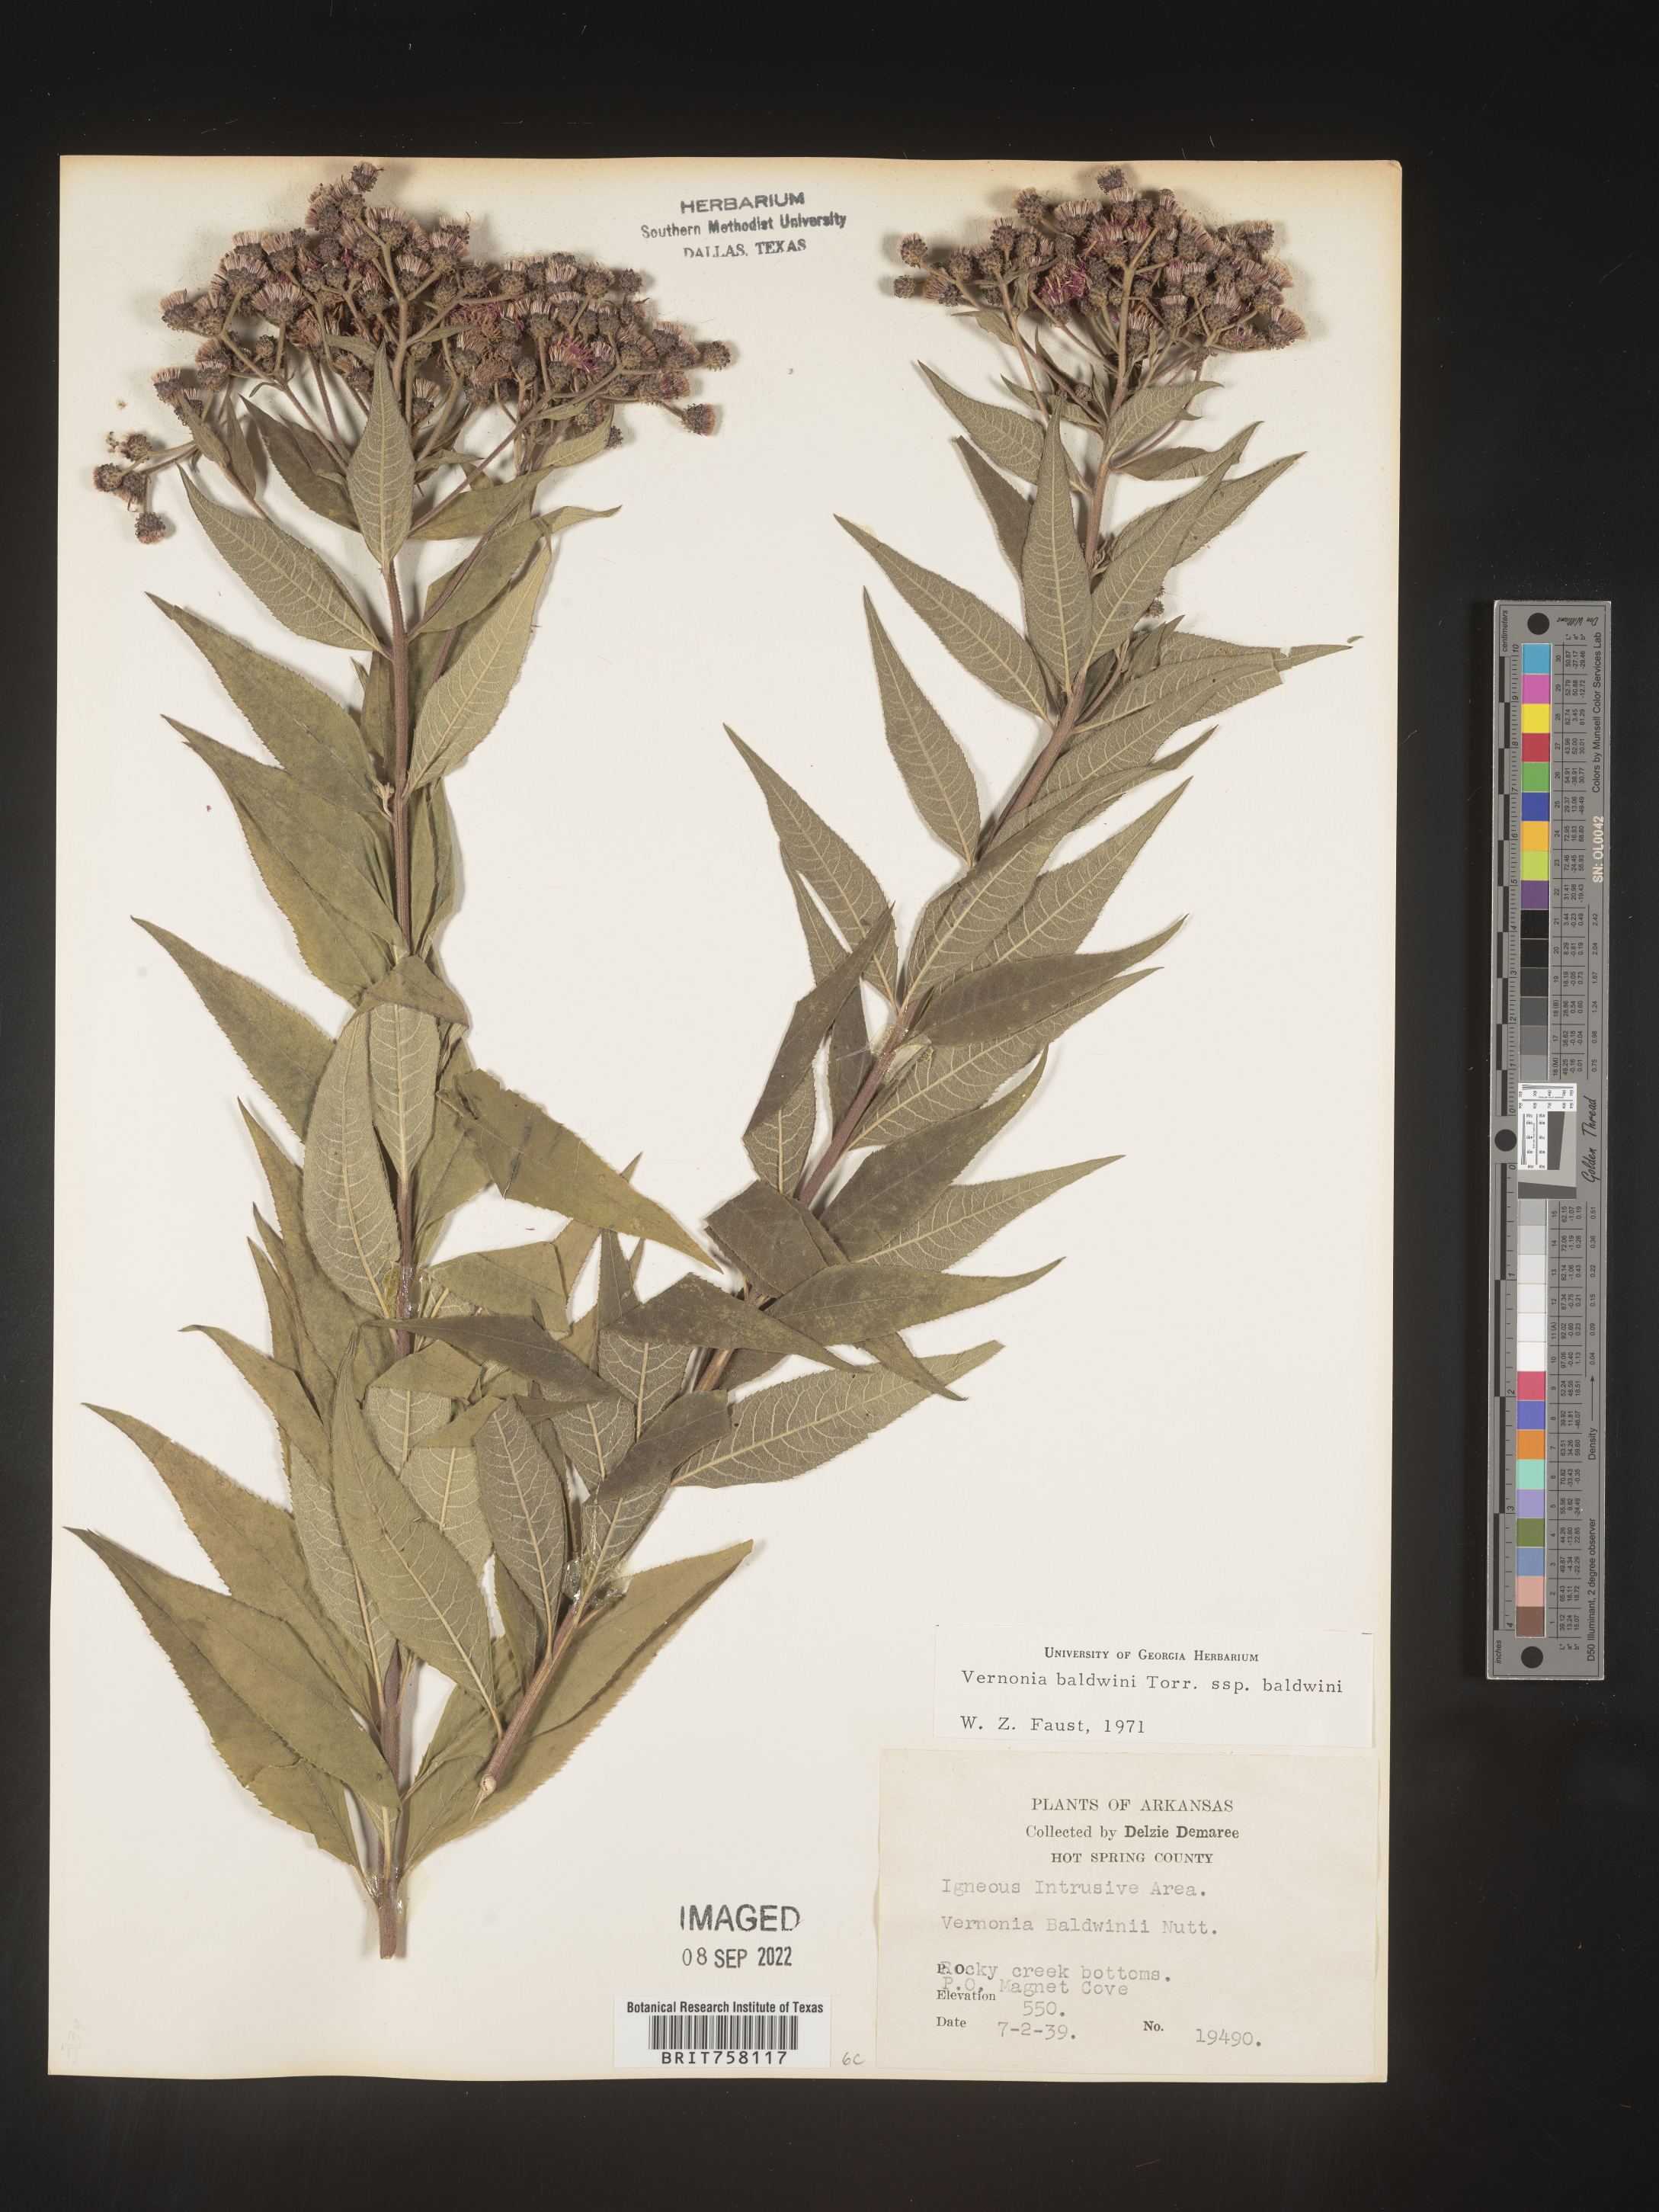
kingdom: Plantae
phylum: Tracheophyta
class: Magnoliopsida
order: Asterales
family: Asteraceae
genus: Vernonia
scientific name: Vernonia baldwinii
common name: Western ironweed
